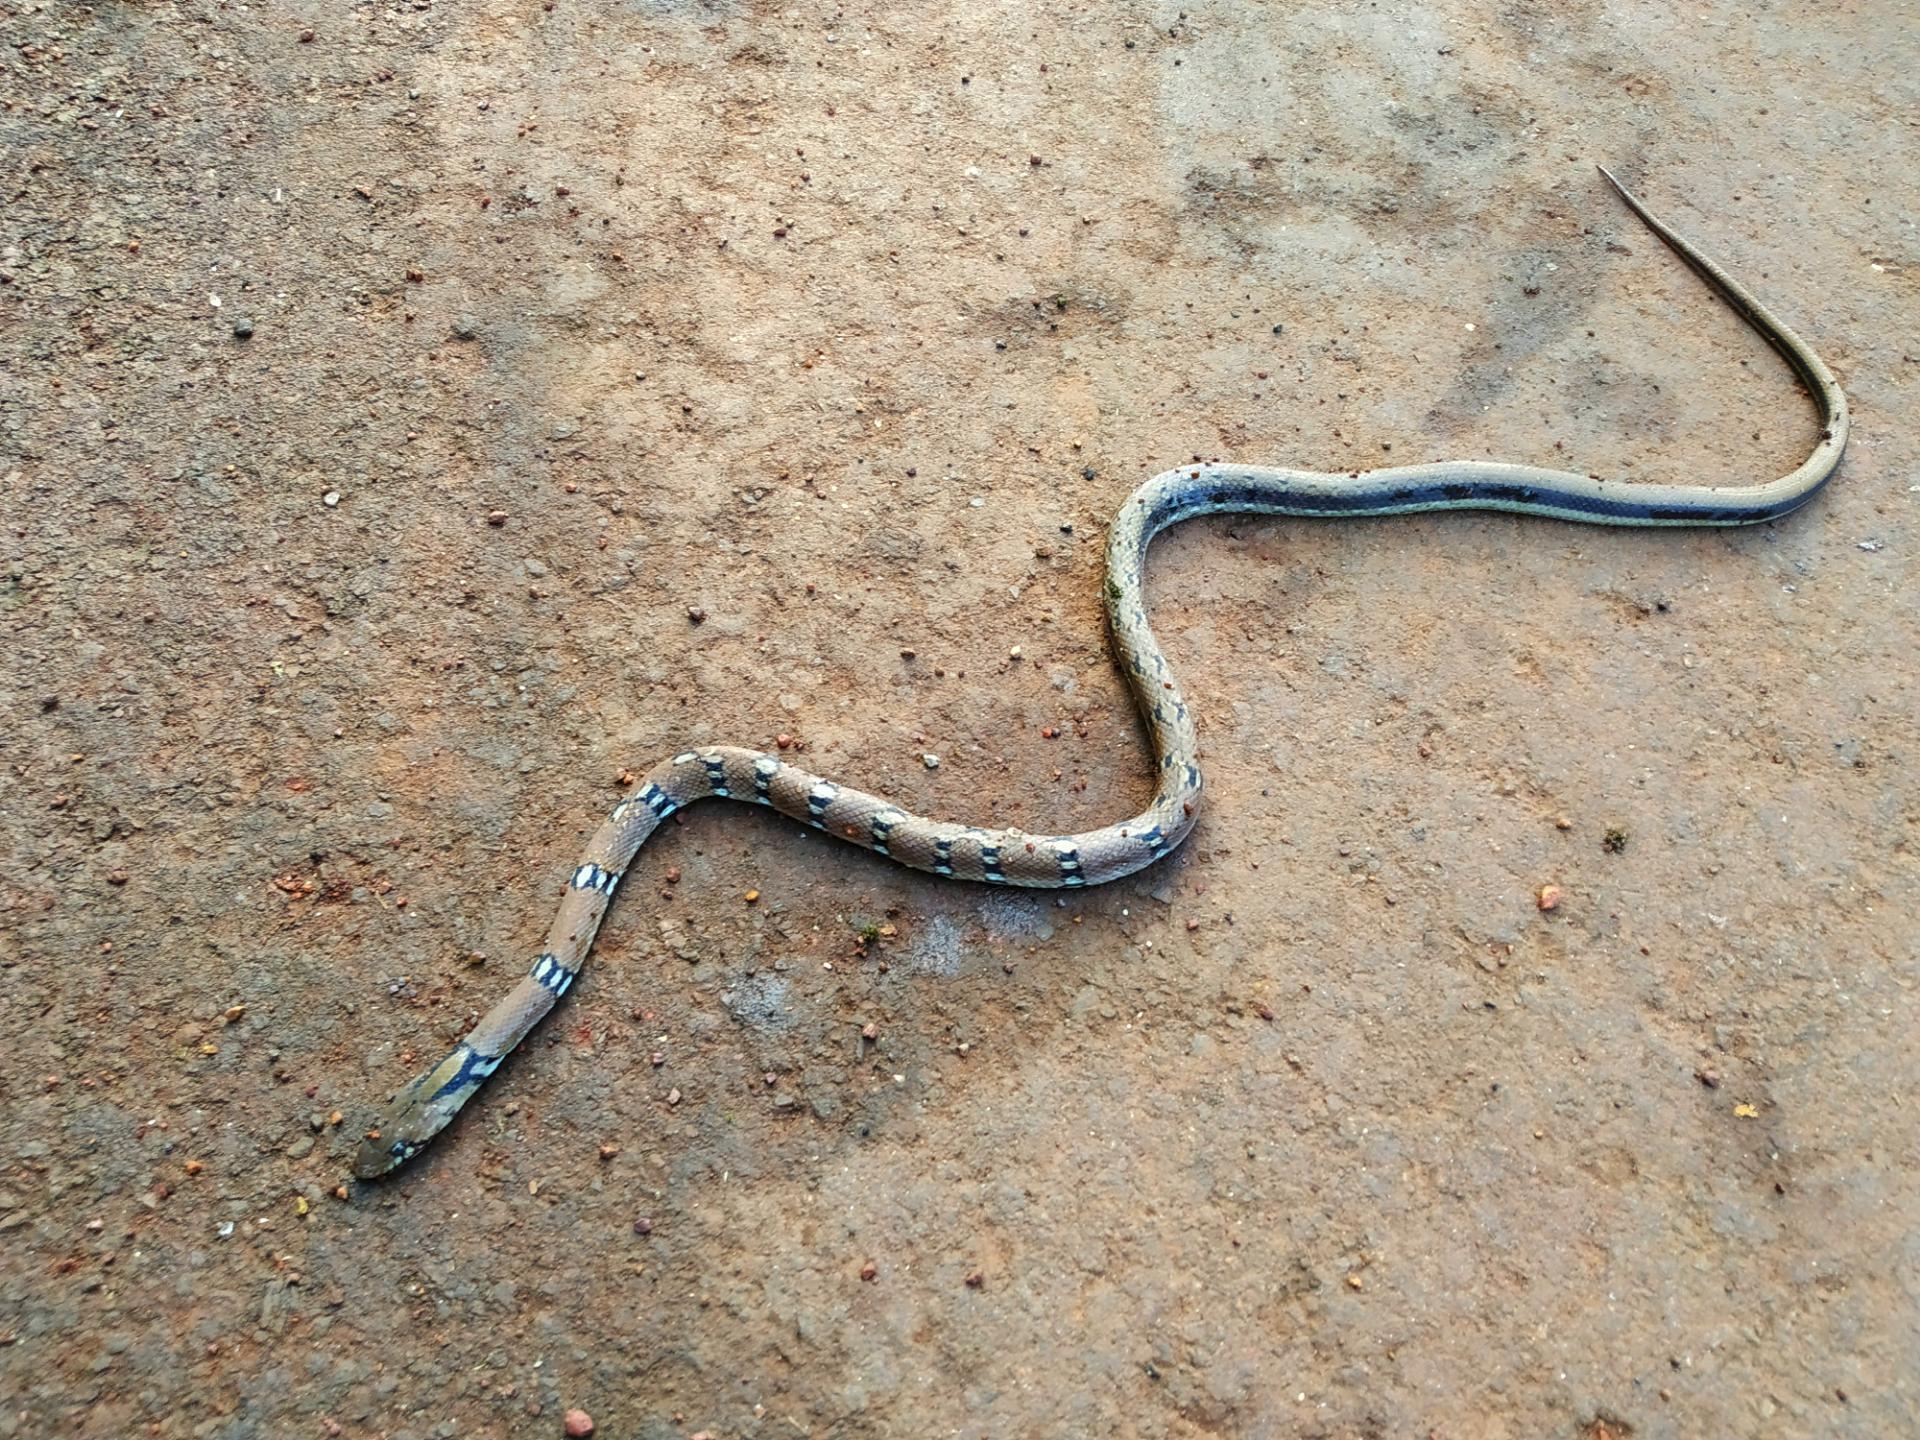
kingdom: Animalia
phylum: Chordata
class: Squamata
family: Colubridae
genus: Coelognathus
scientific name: Coelognathus helena
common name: Trinket snake
